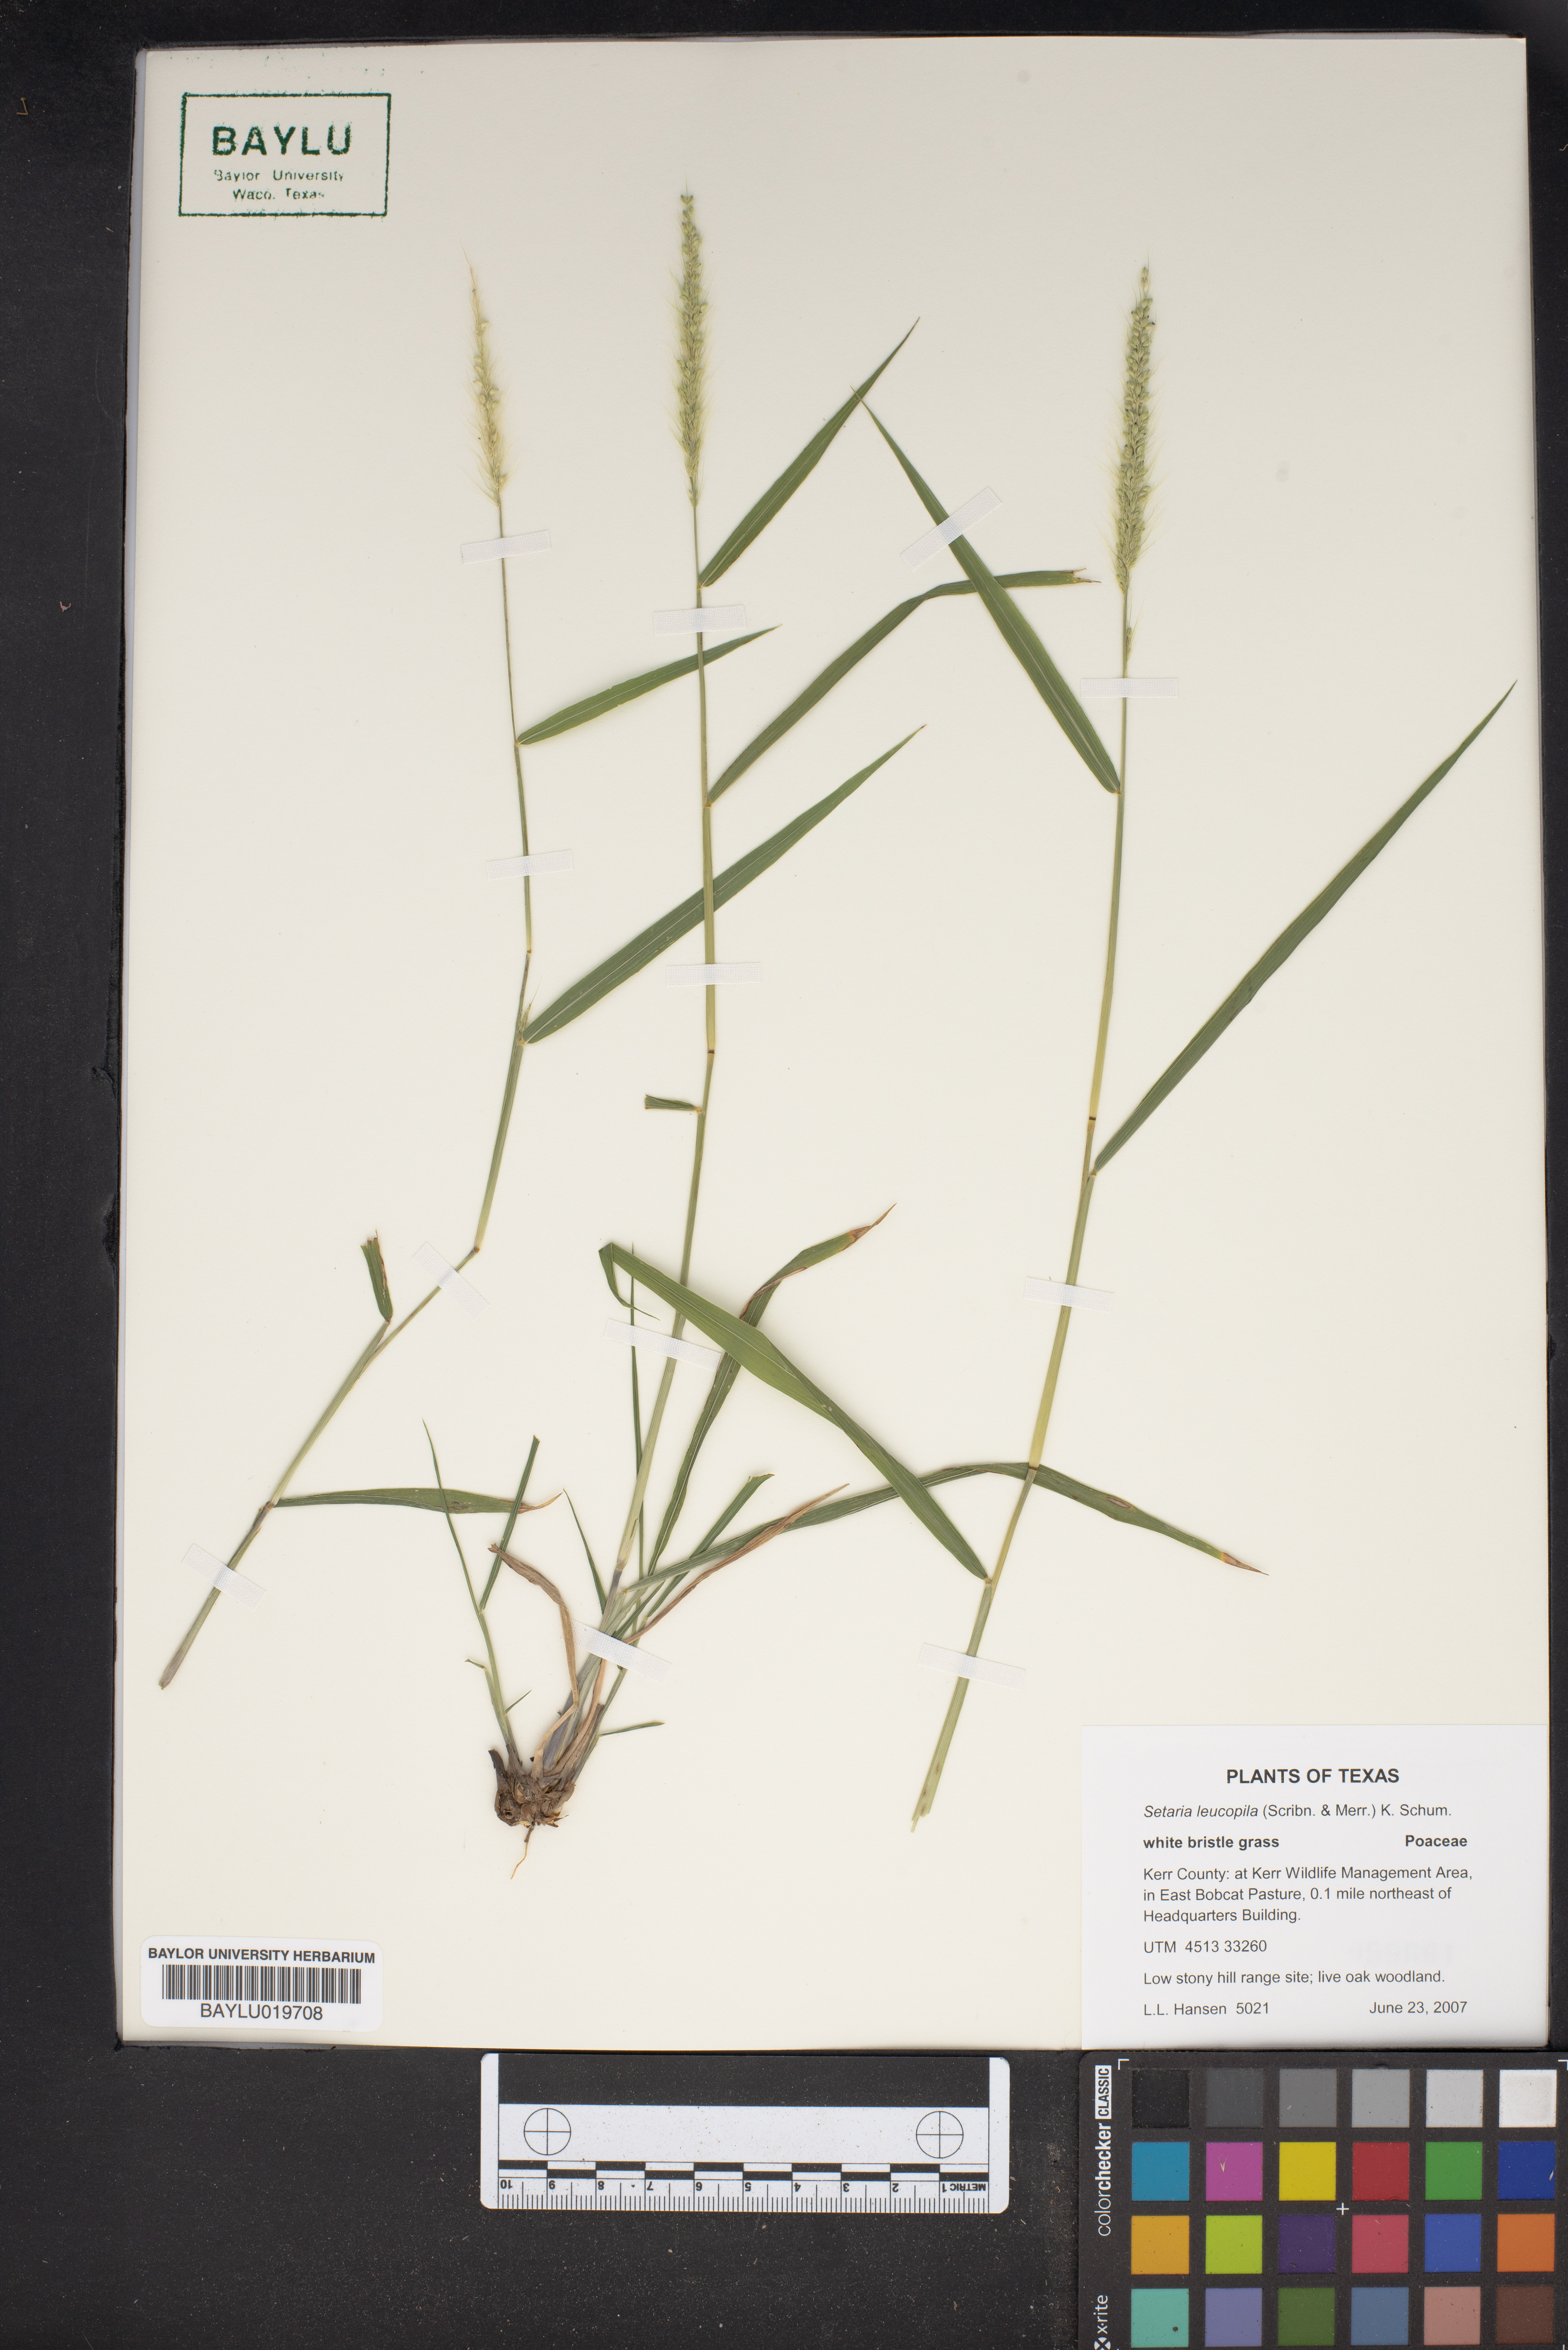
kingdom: Plantae
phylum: Tracheophyta
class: Liliopsida
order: Poales
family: Poaceae
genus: Setaria
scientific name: Setaria leucopila
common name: Plains bristle grass
